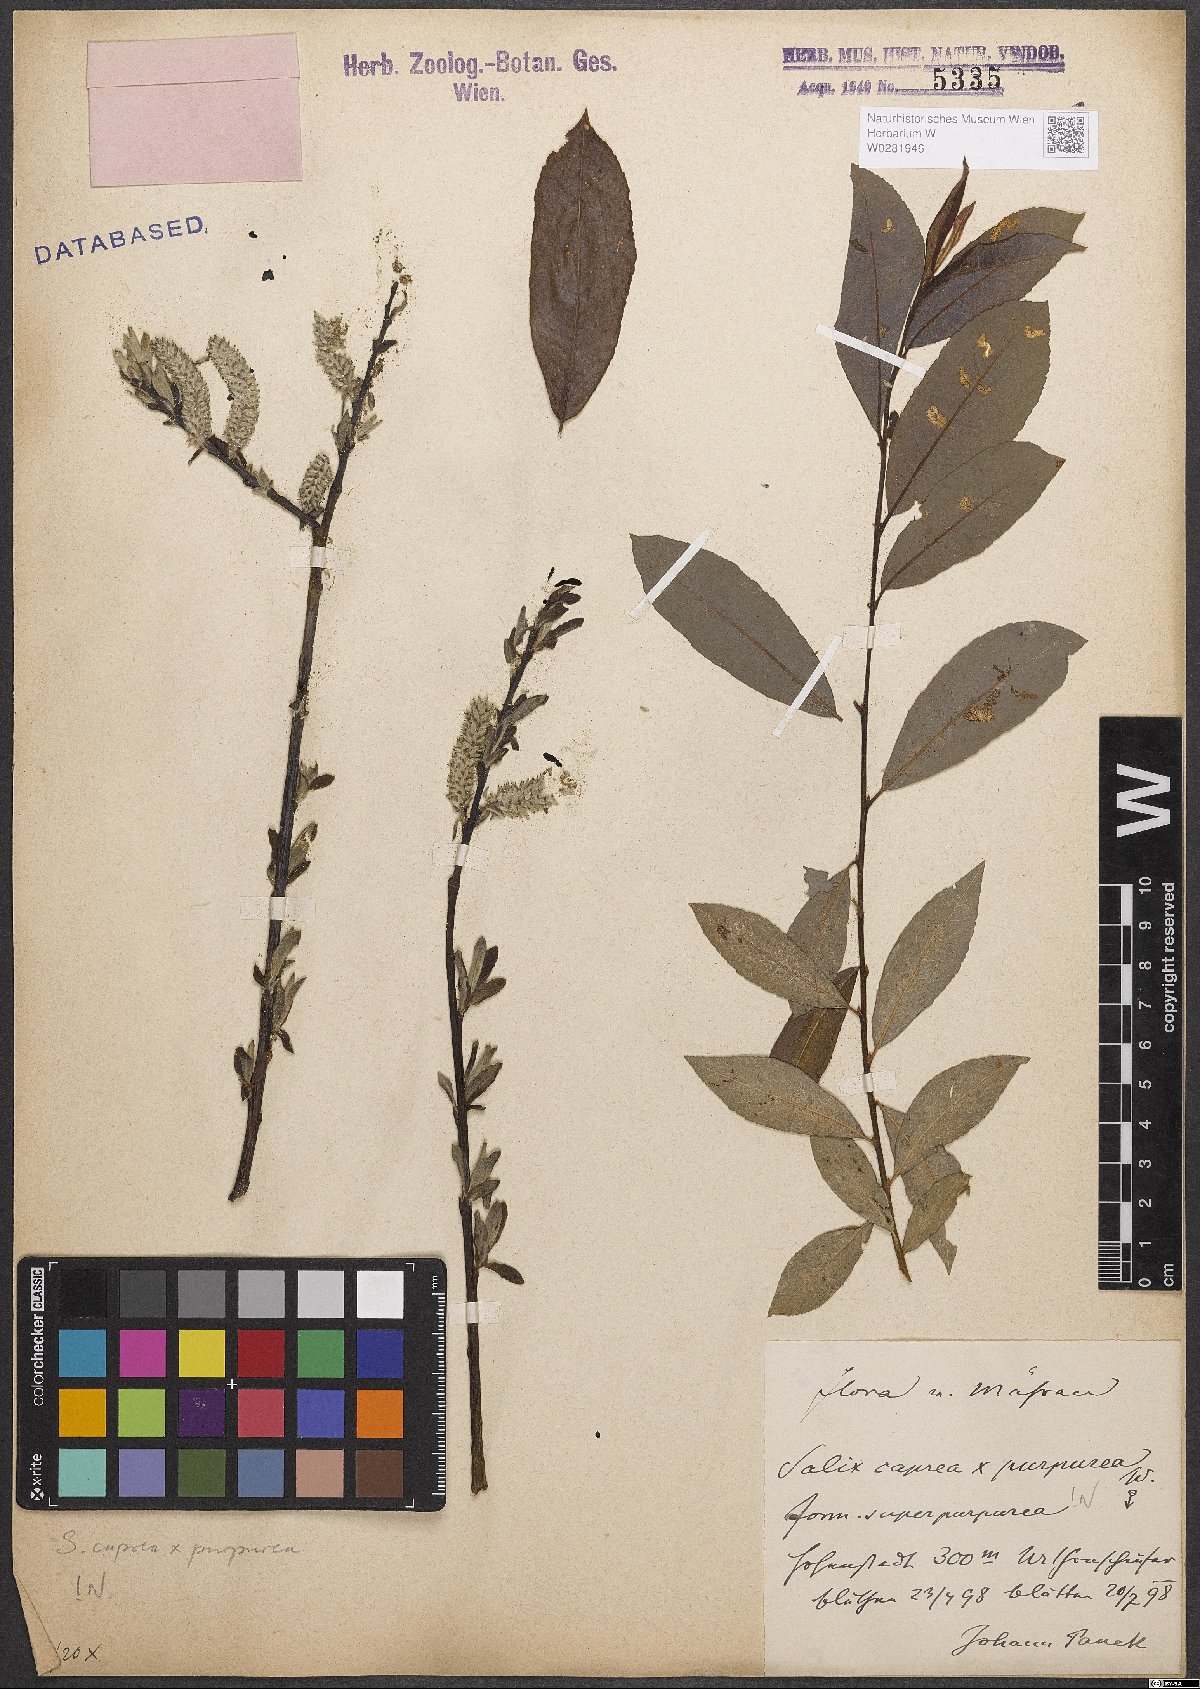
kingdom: Plantae
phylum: Tracheophyta
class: Magnoliopsida
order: Malpighiales
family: Salicaceae
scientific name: Salicaceae
